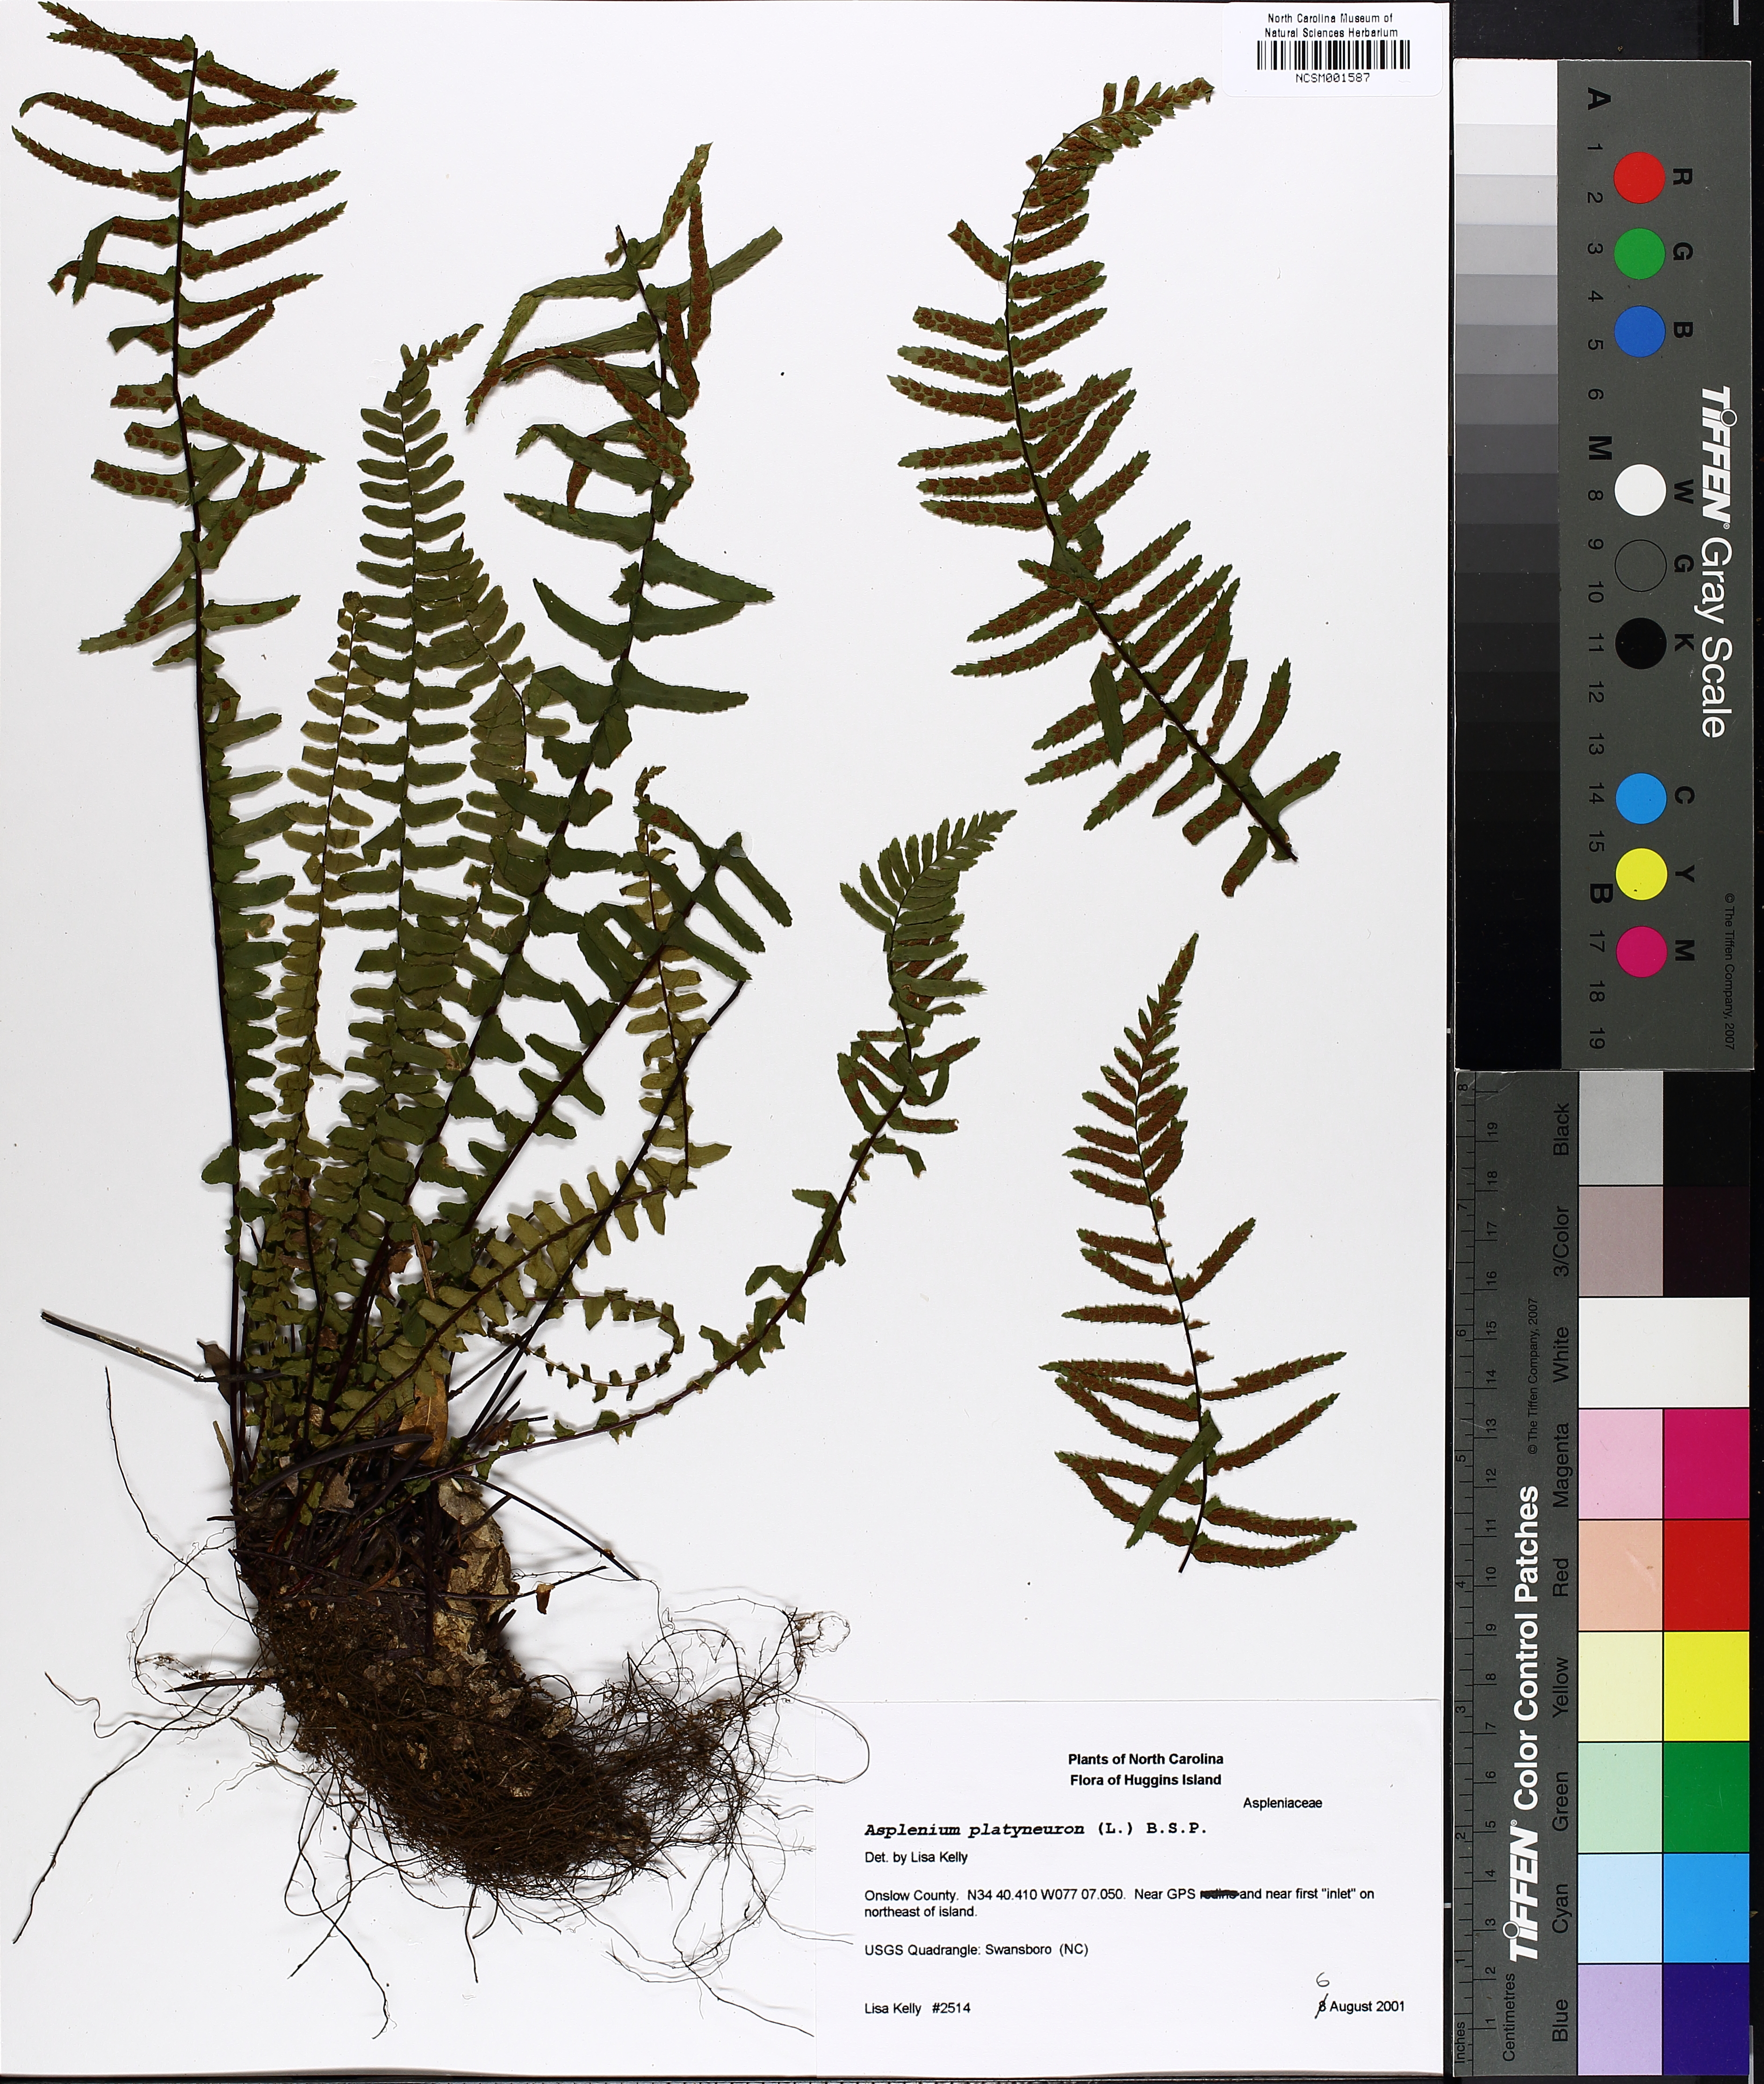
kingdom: Plantae
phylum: Tracheophyta
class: Polypodiopsida
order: Polypodiales
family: Aspleniaceae
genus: Asplenium
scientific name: Asplenium platyneuron
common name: Ebony spleenwort
